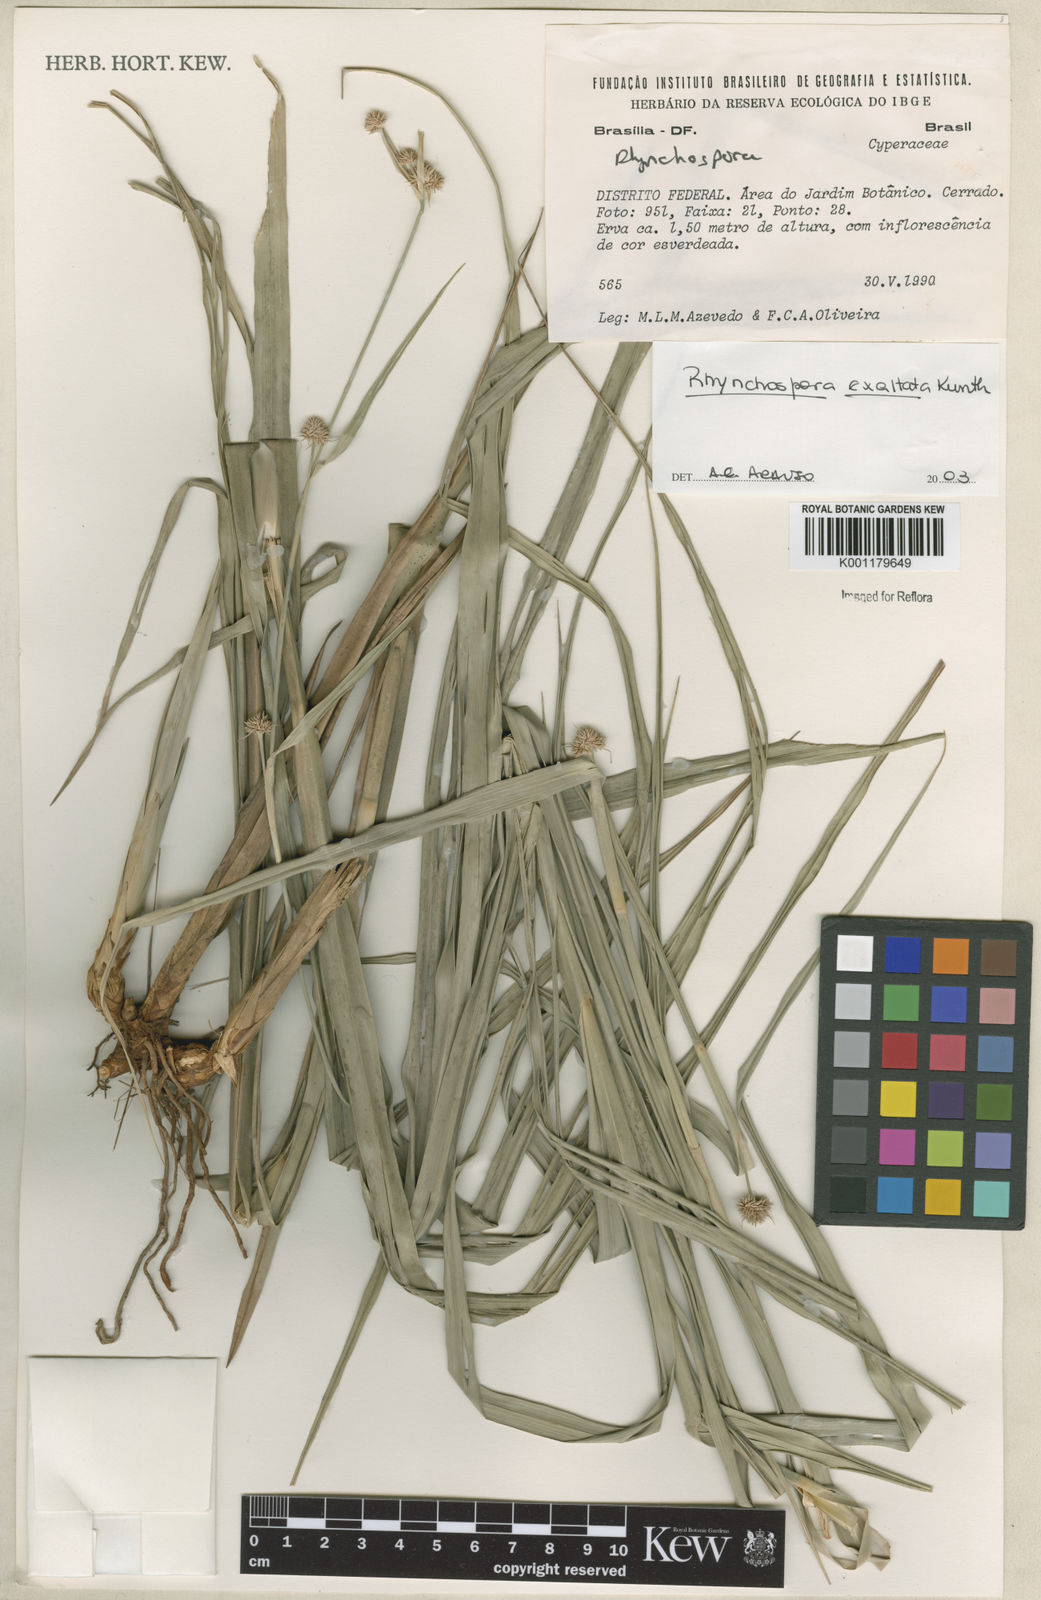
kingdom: Plantae
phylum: Tracheophyta
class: Liliopsida
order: Poales
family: Cyperaceae
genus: Rhynchospora
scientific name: Rhynchospora exaltata
